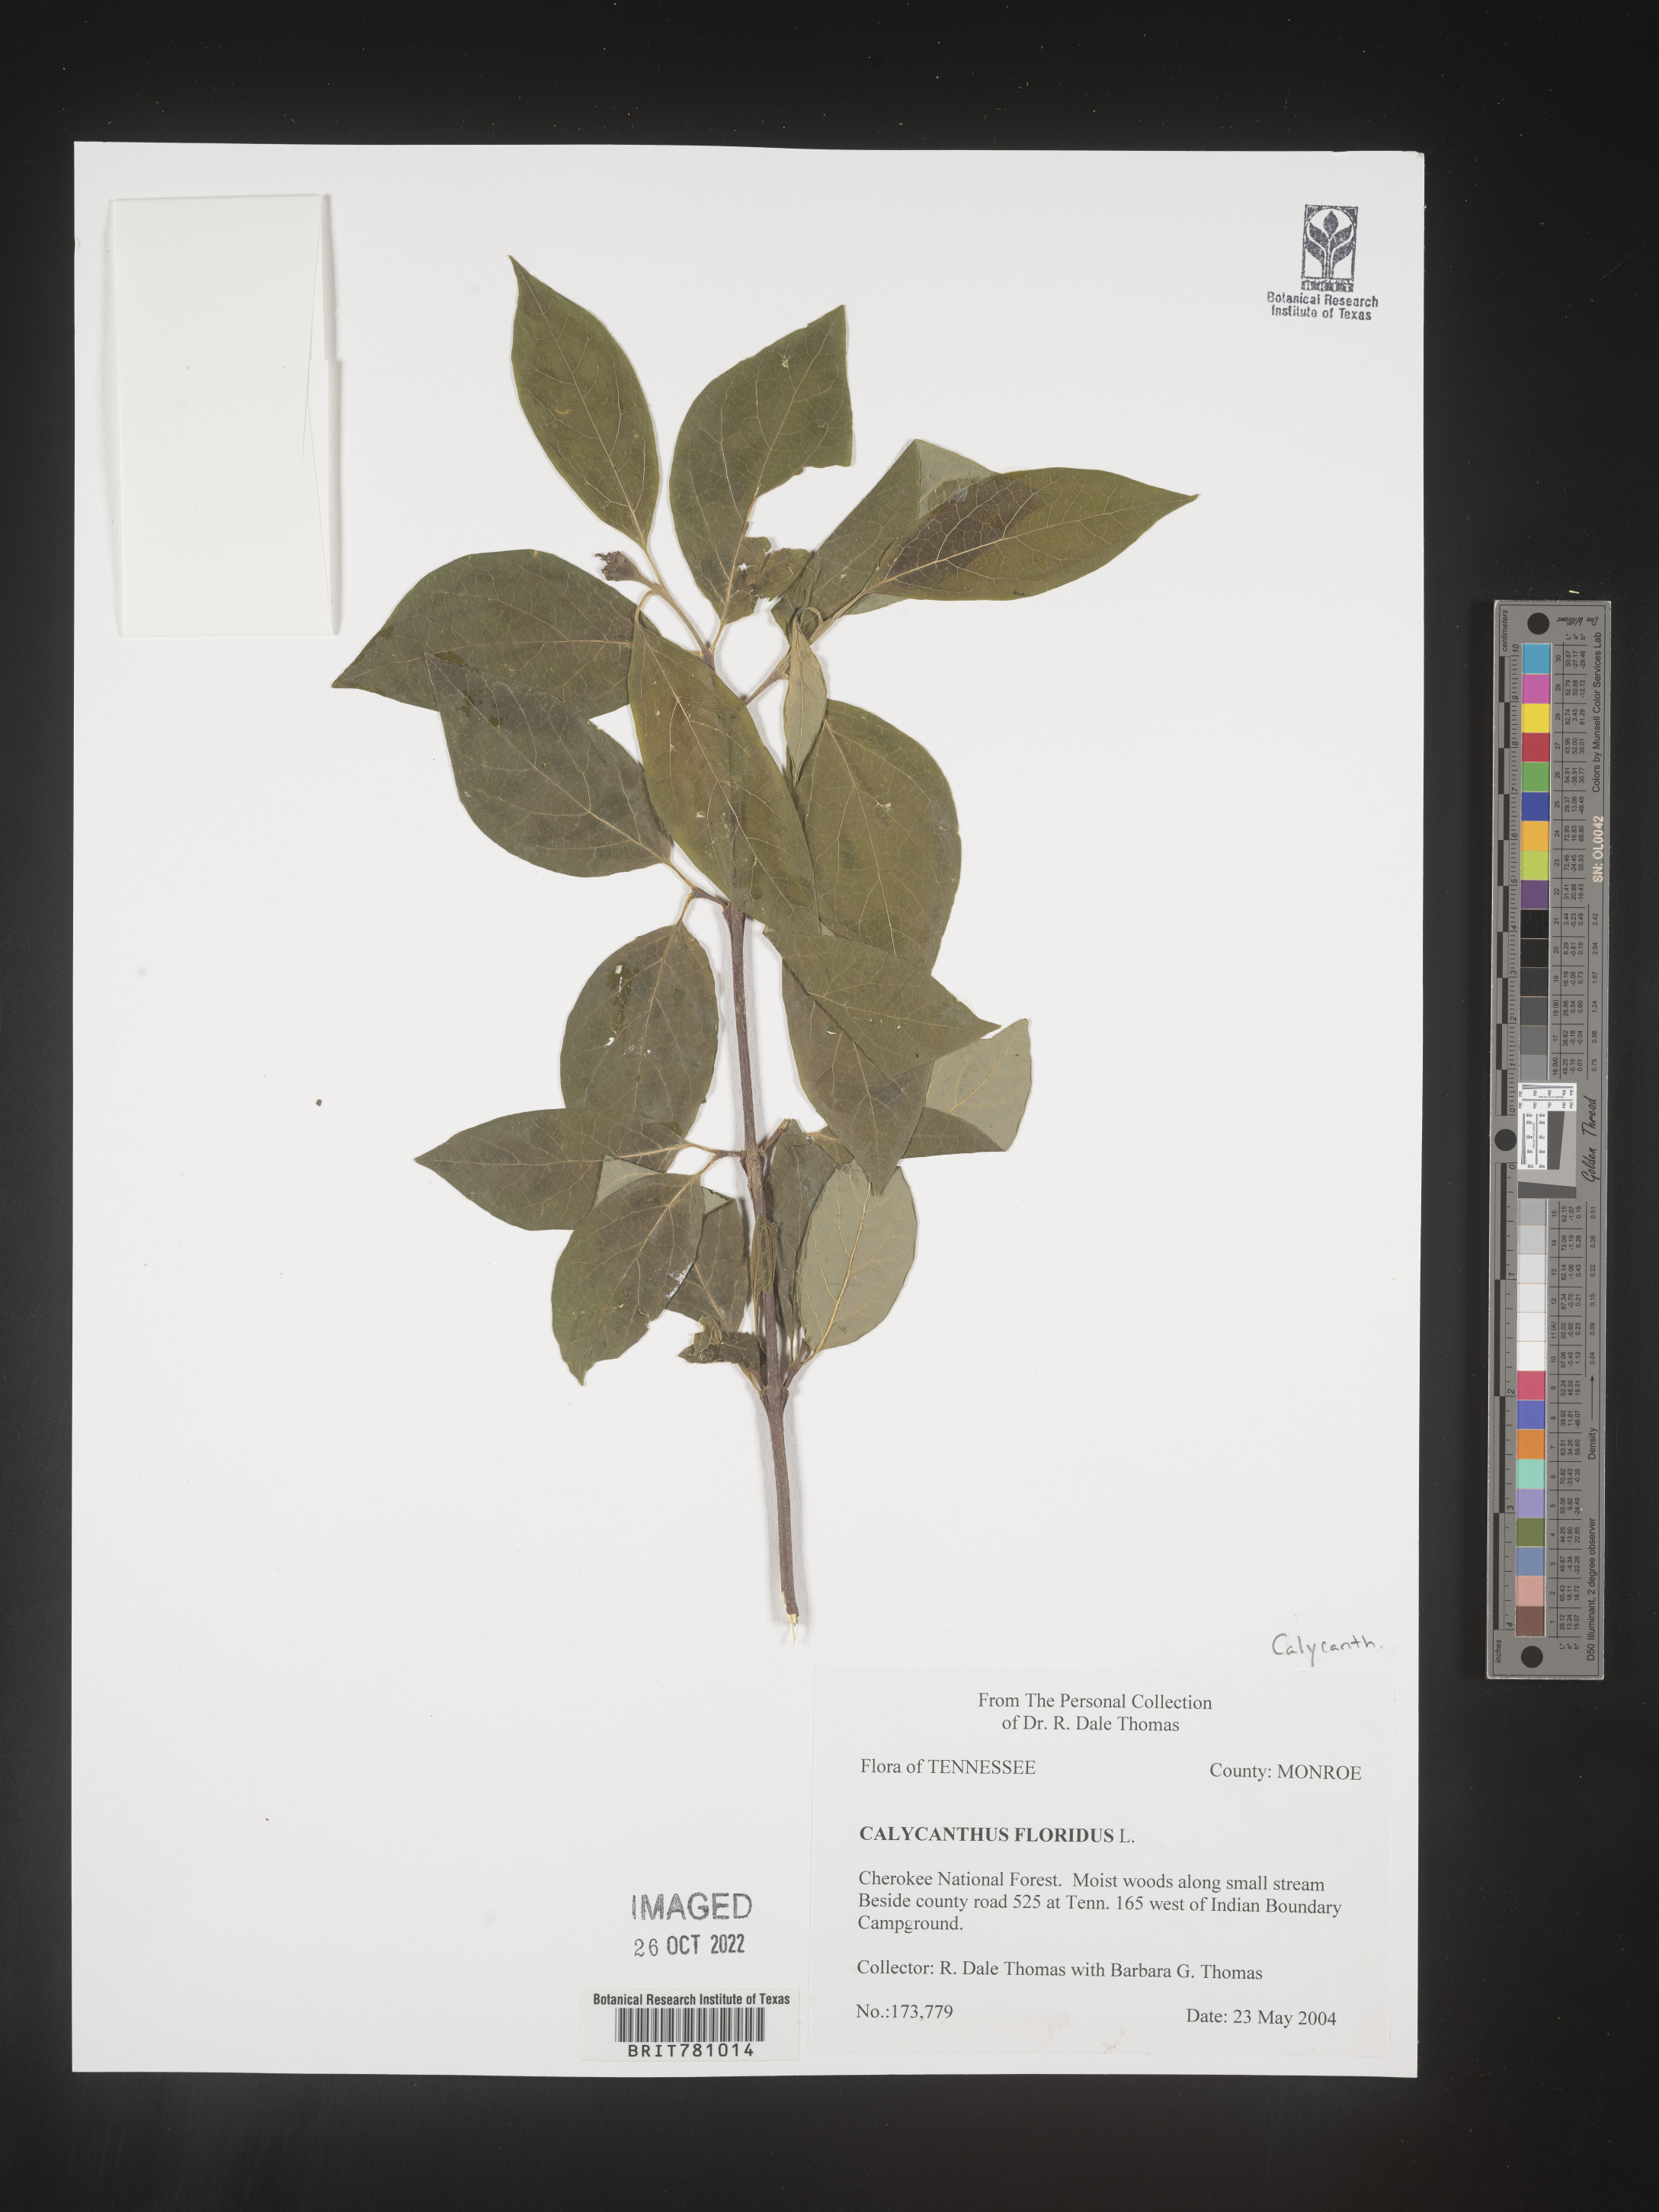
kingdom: Plantae
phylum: Tracheophyta
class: Magnoliopsida
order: Laurales
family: Calycanthaceae
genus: Calycanthus
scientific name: Calycanthus floridus
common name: Carolina-allspice
